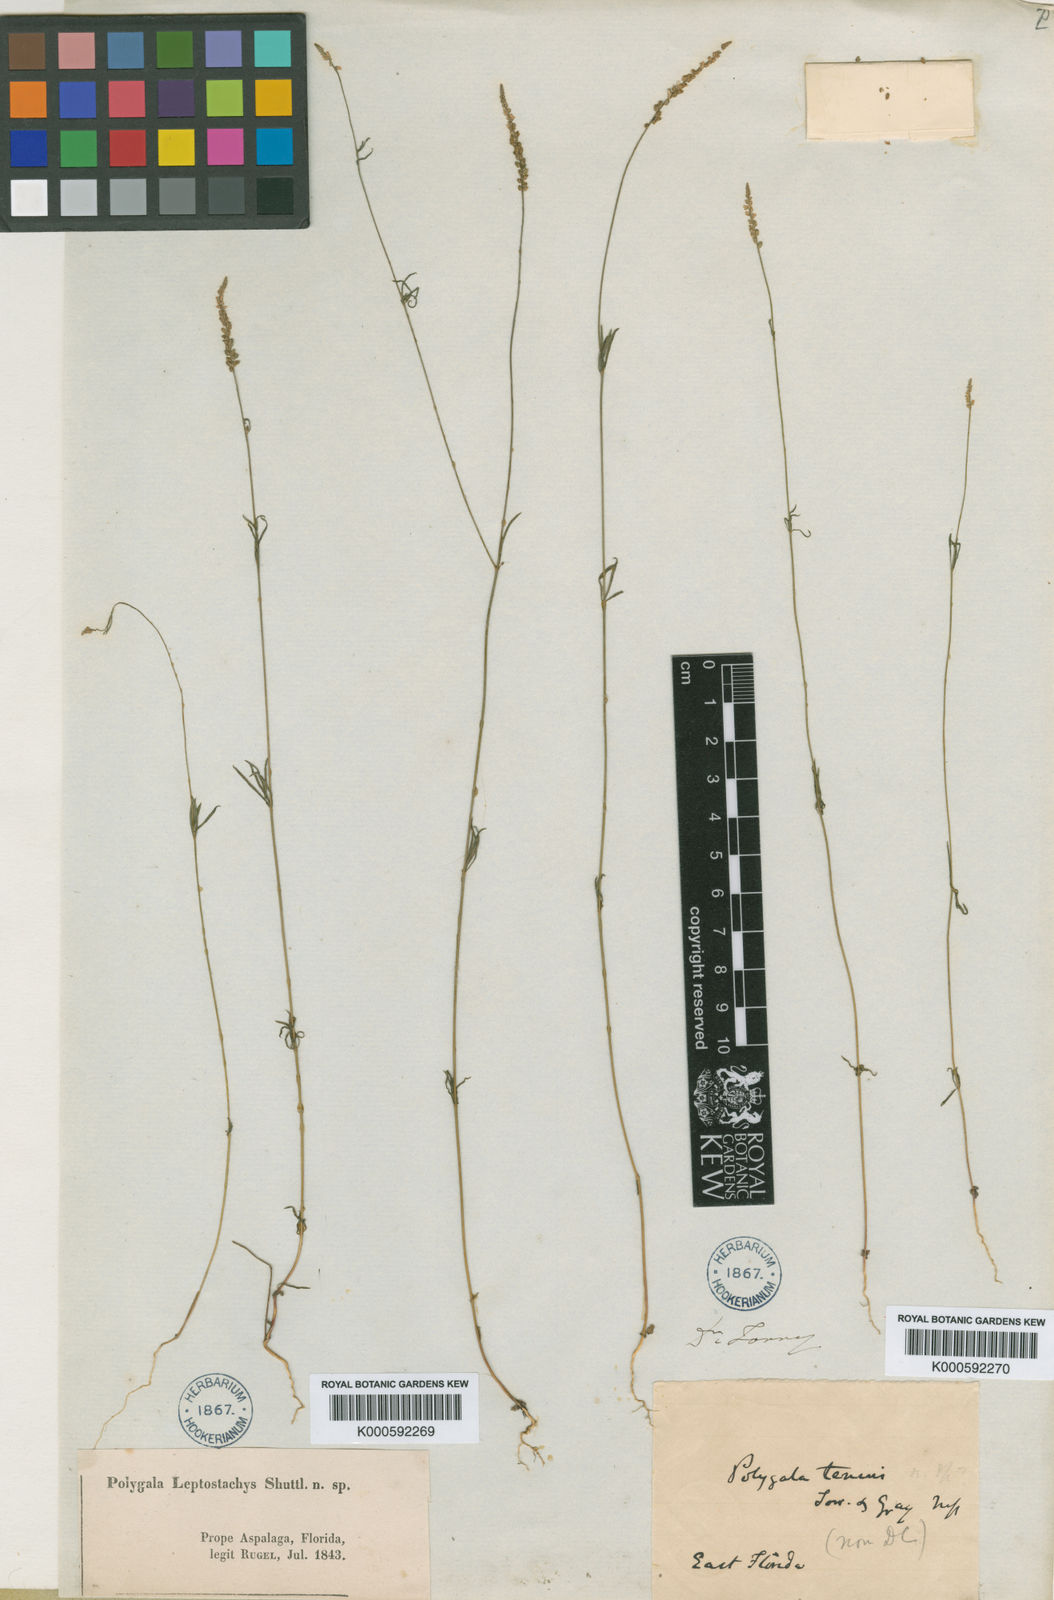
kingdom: Plantae
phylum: Tracheophyta
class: Magnoliopsida
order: Fabales
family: Polygalaceae
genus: Polygala
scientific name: Polygala
